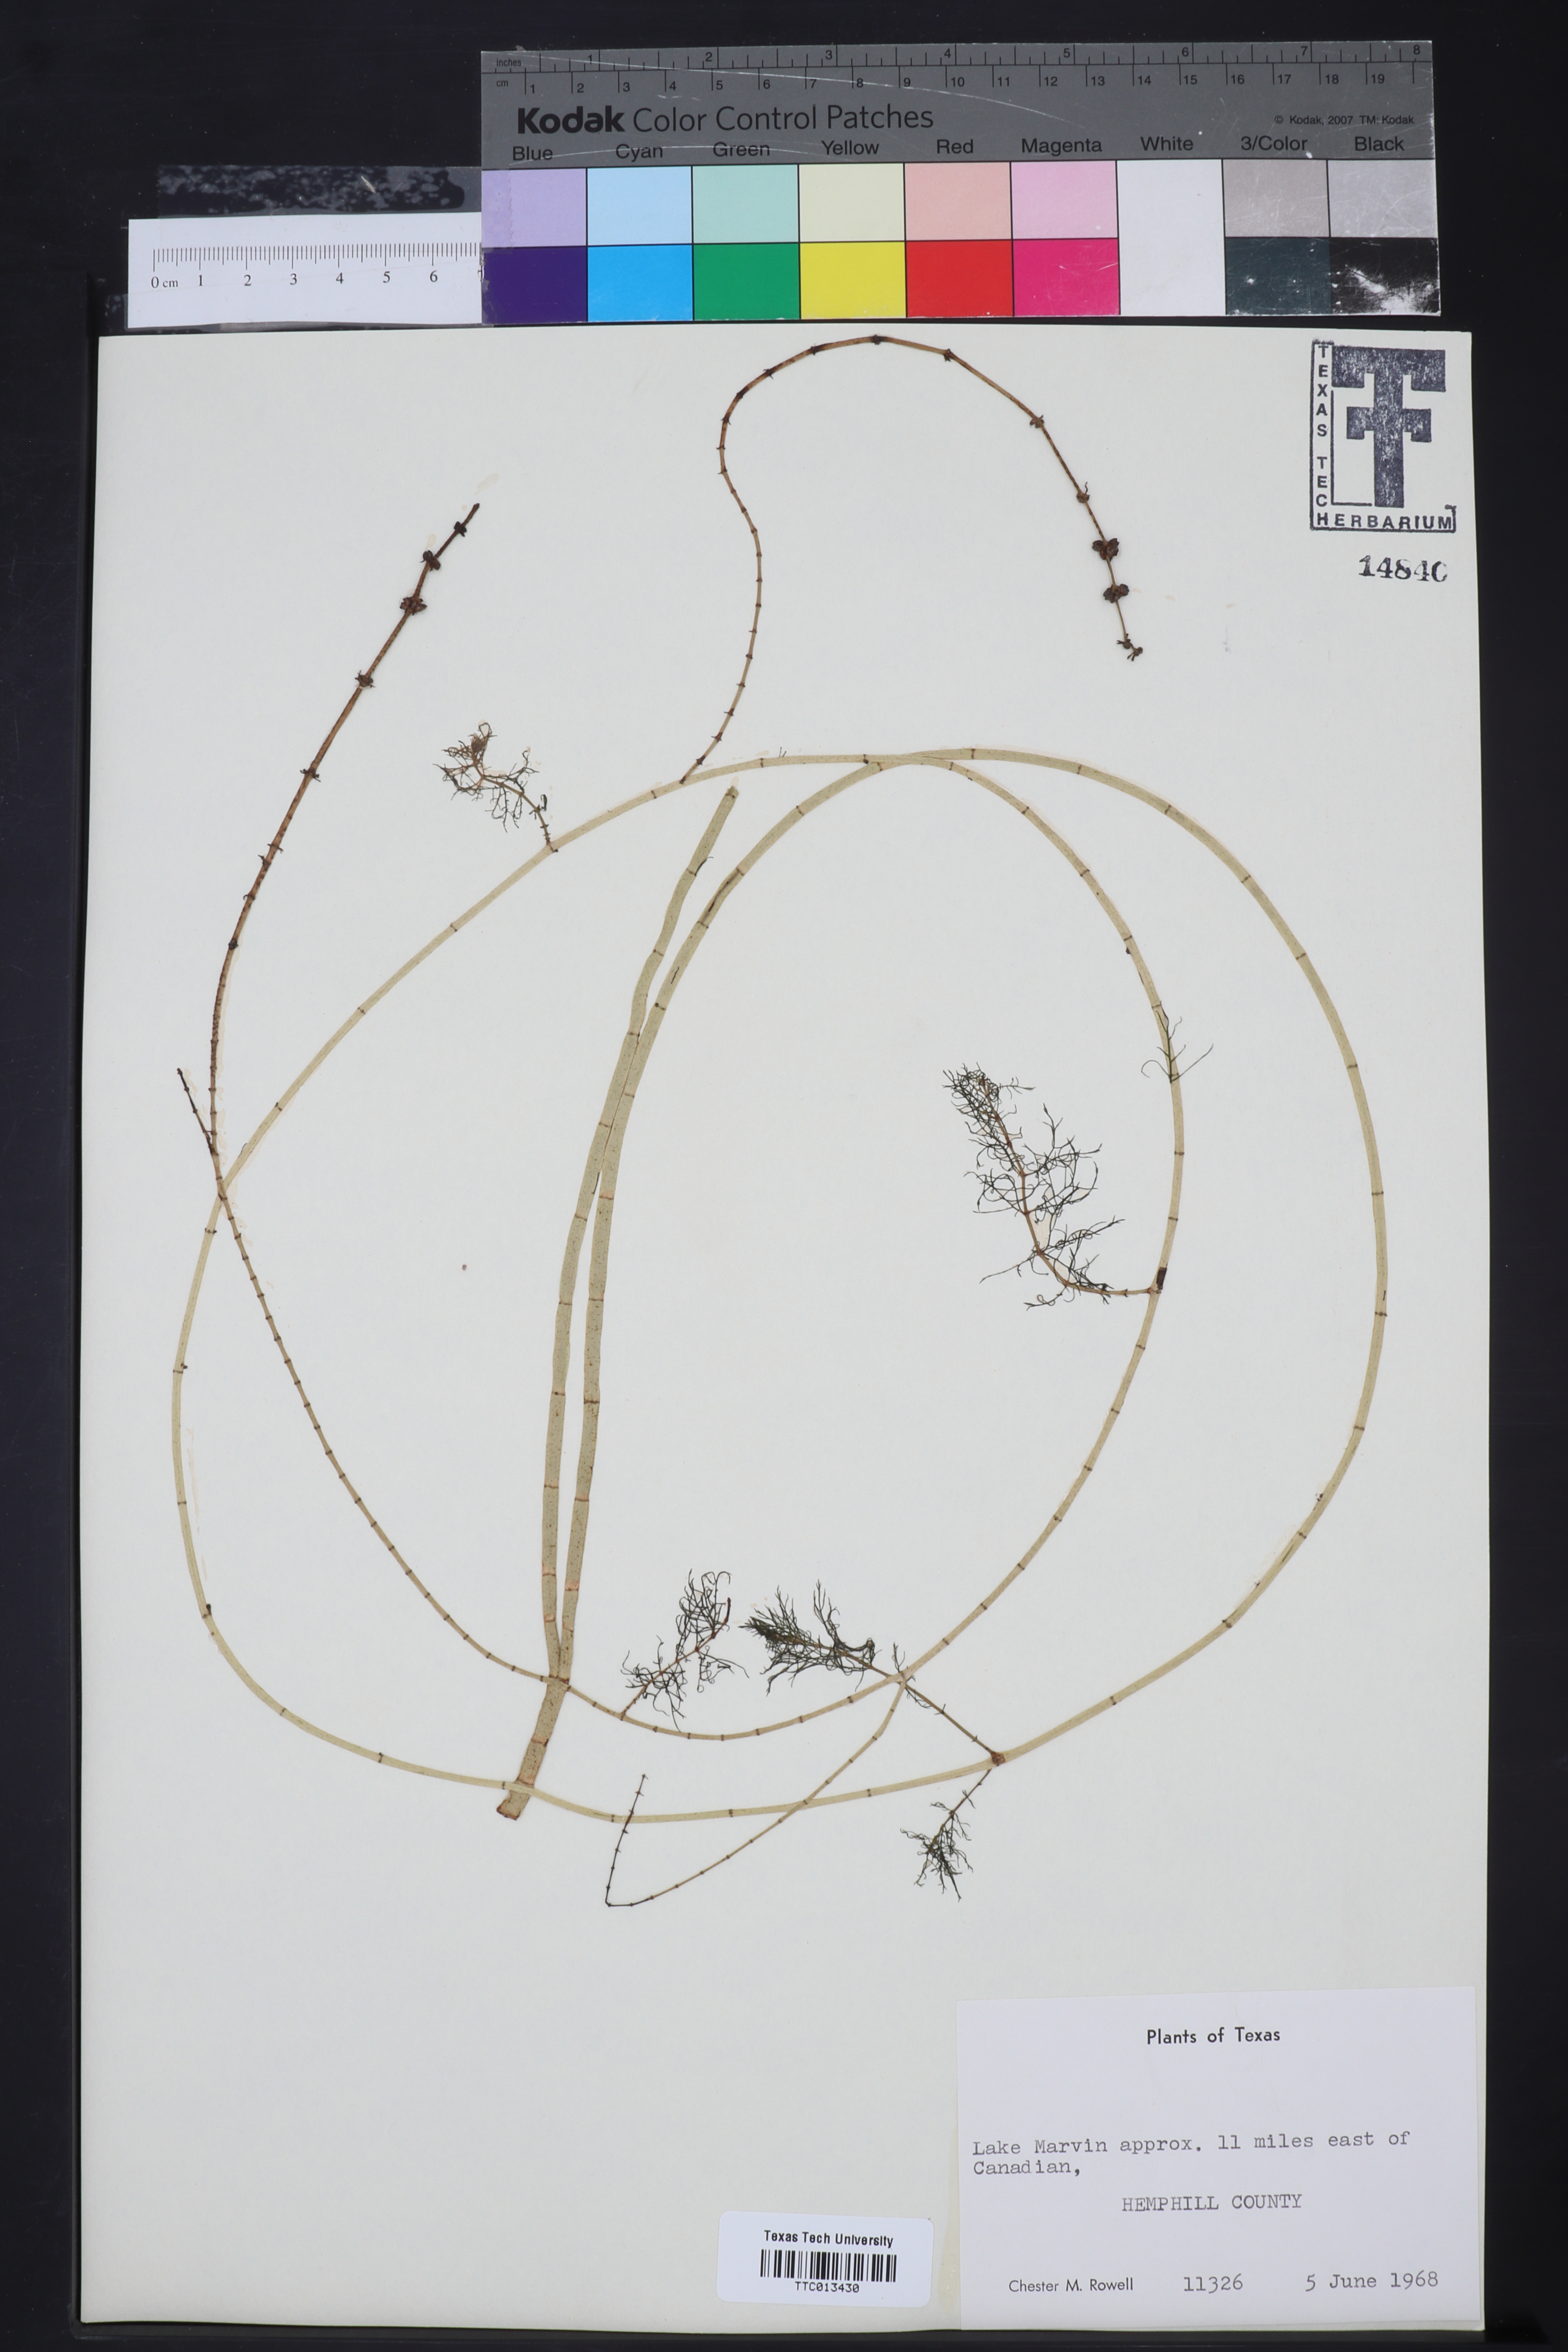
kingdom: Plantae
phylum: Tracheophyta
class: Magnoliopsida
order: Saxifragales
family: Haloragaceae
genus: Myriophyllum
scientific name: Myriophyllum sibiricum
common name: Siberian water-milfoil
